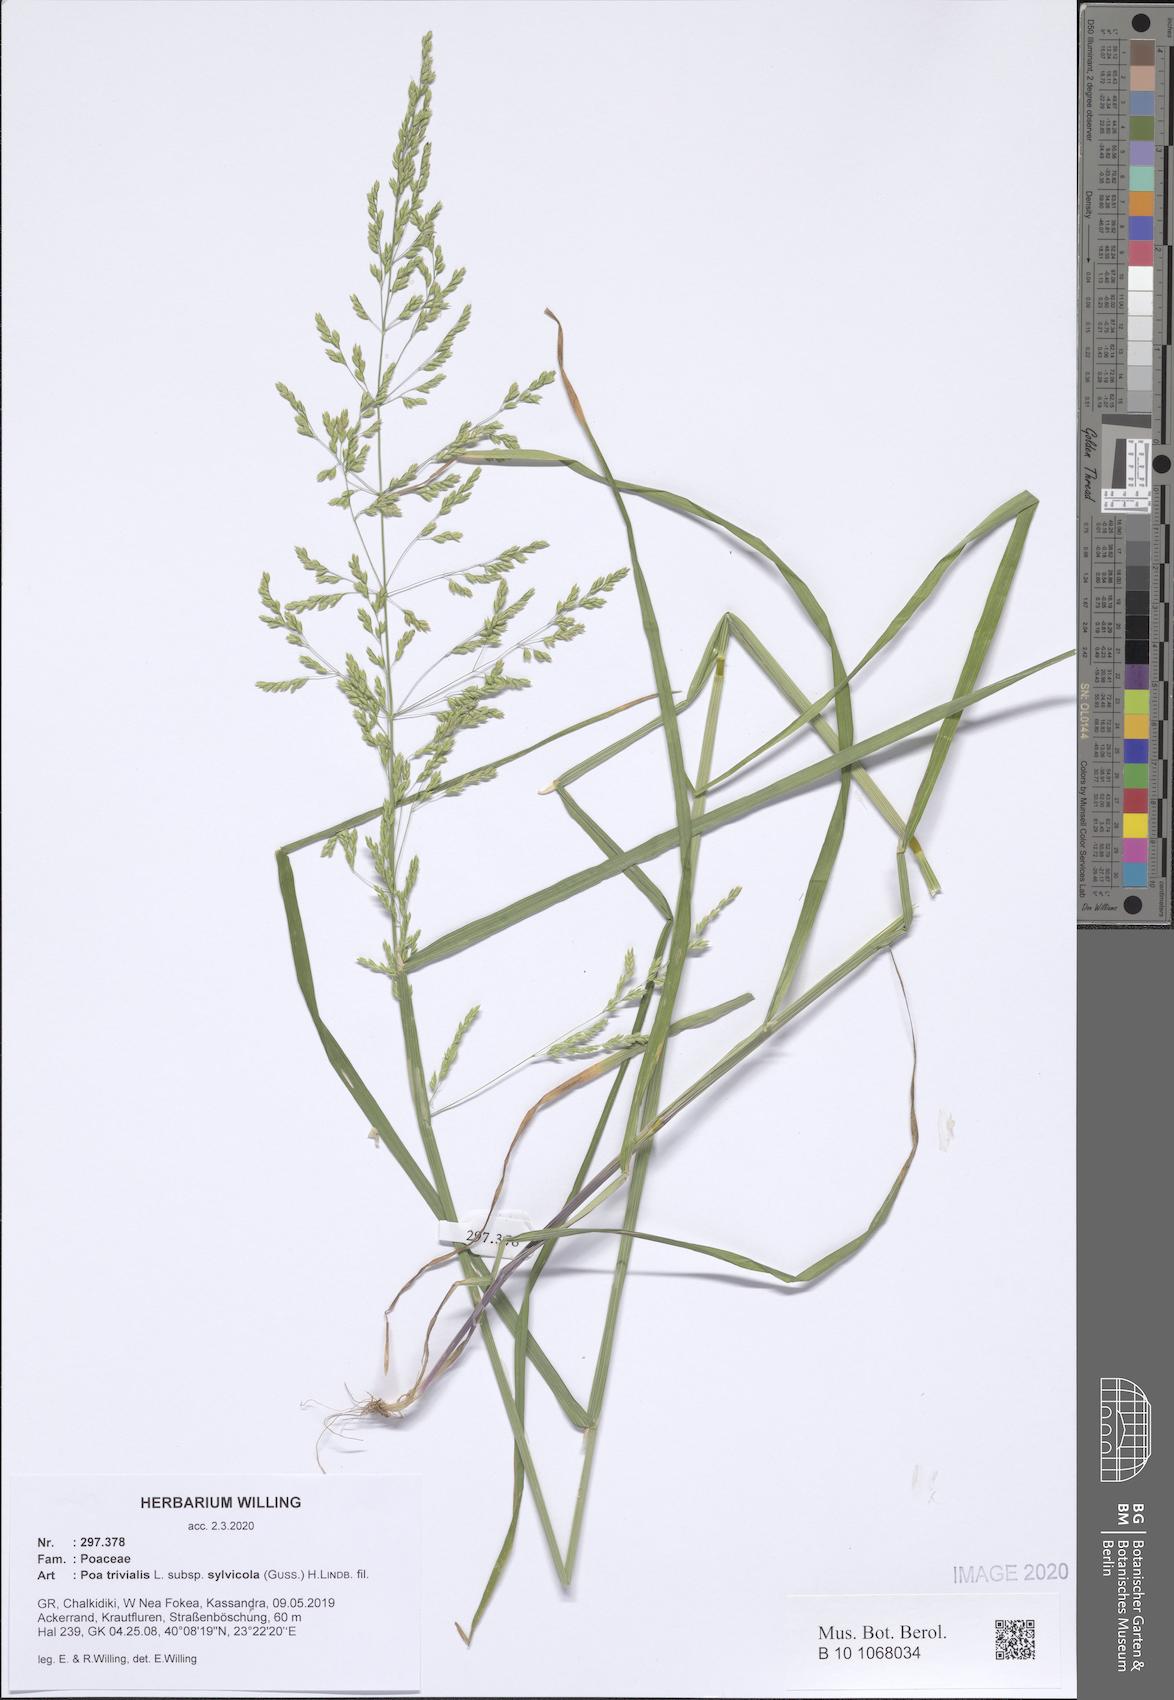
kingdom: Plantae
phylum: Tracheophyta
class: Liliopsida
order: Poales
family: Poaceae
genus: Poa
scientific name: Poa trivialis
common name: Rough bluegrass
